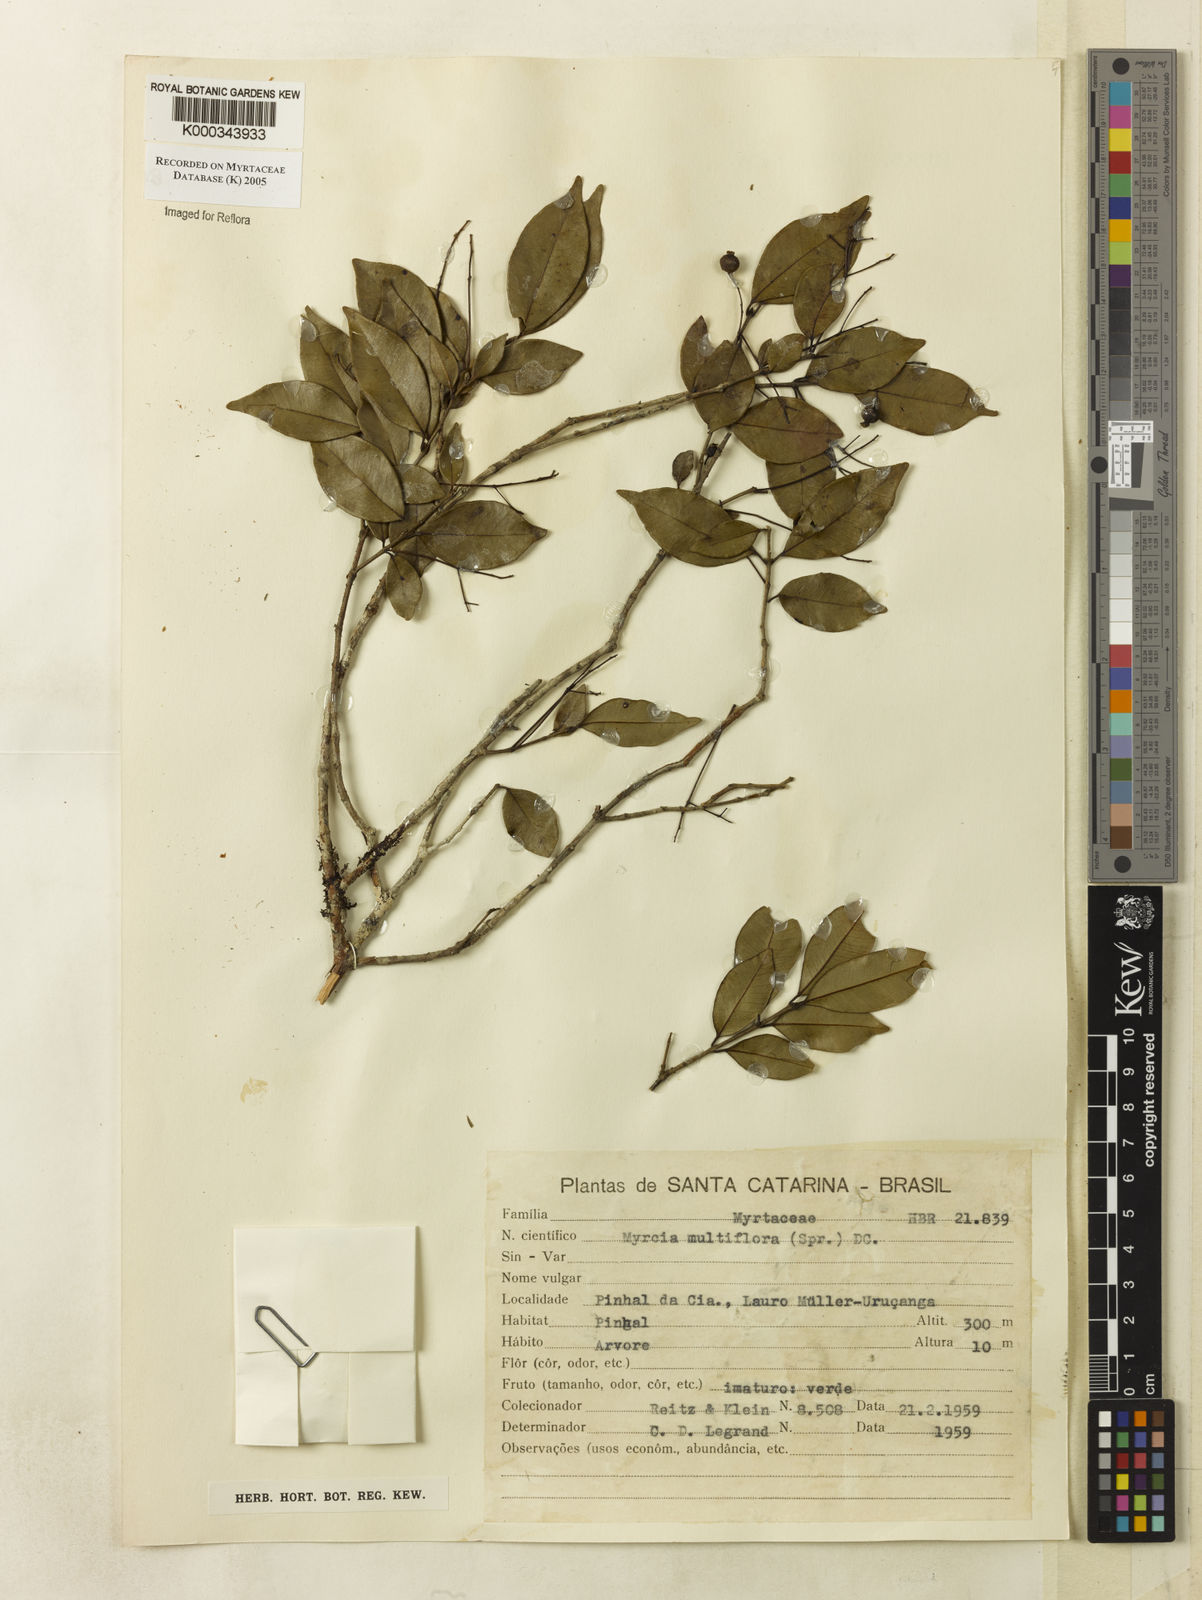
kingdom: Plantae
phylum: Tracheophyta
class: Magnoliopsida
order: Myrtales
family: Myrtaceae
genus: Myrcia
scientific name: Myrcia multiflora
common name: Pedra hume
